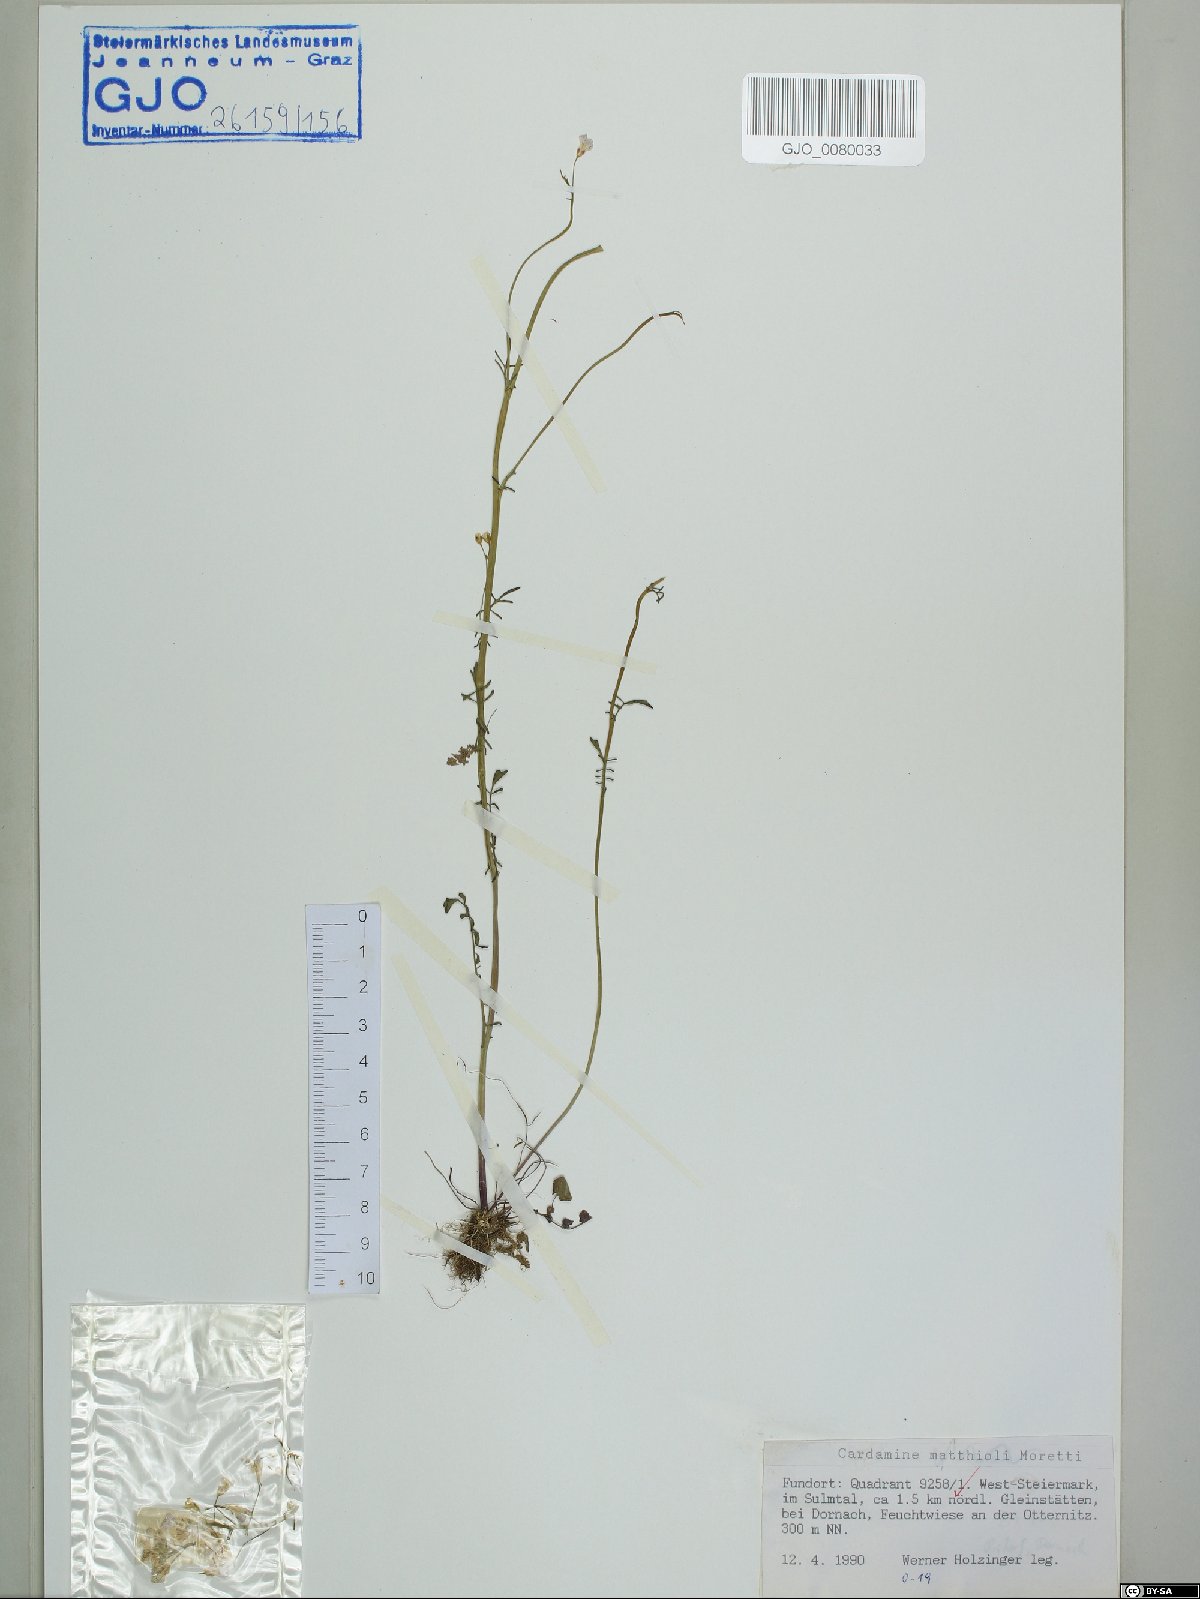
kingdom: Plantae
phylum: Tracheophyta
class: Magnoliopsida
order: Brassicales
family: Brassicaceae
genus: Cardamine
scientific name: Cardamine matthioli
